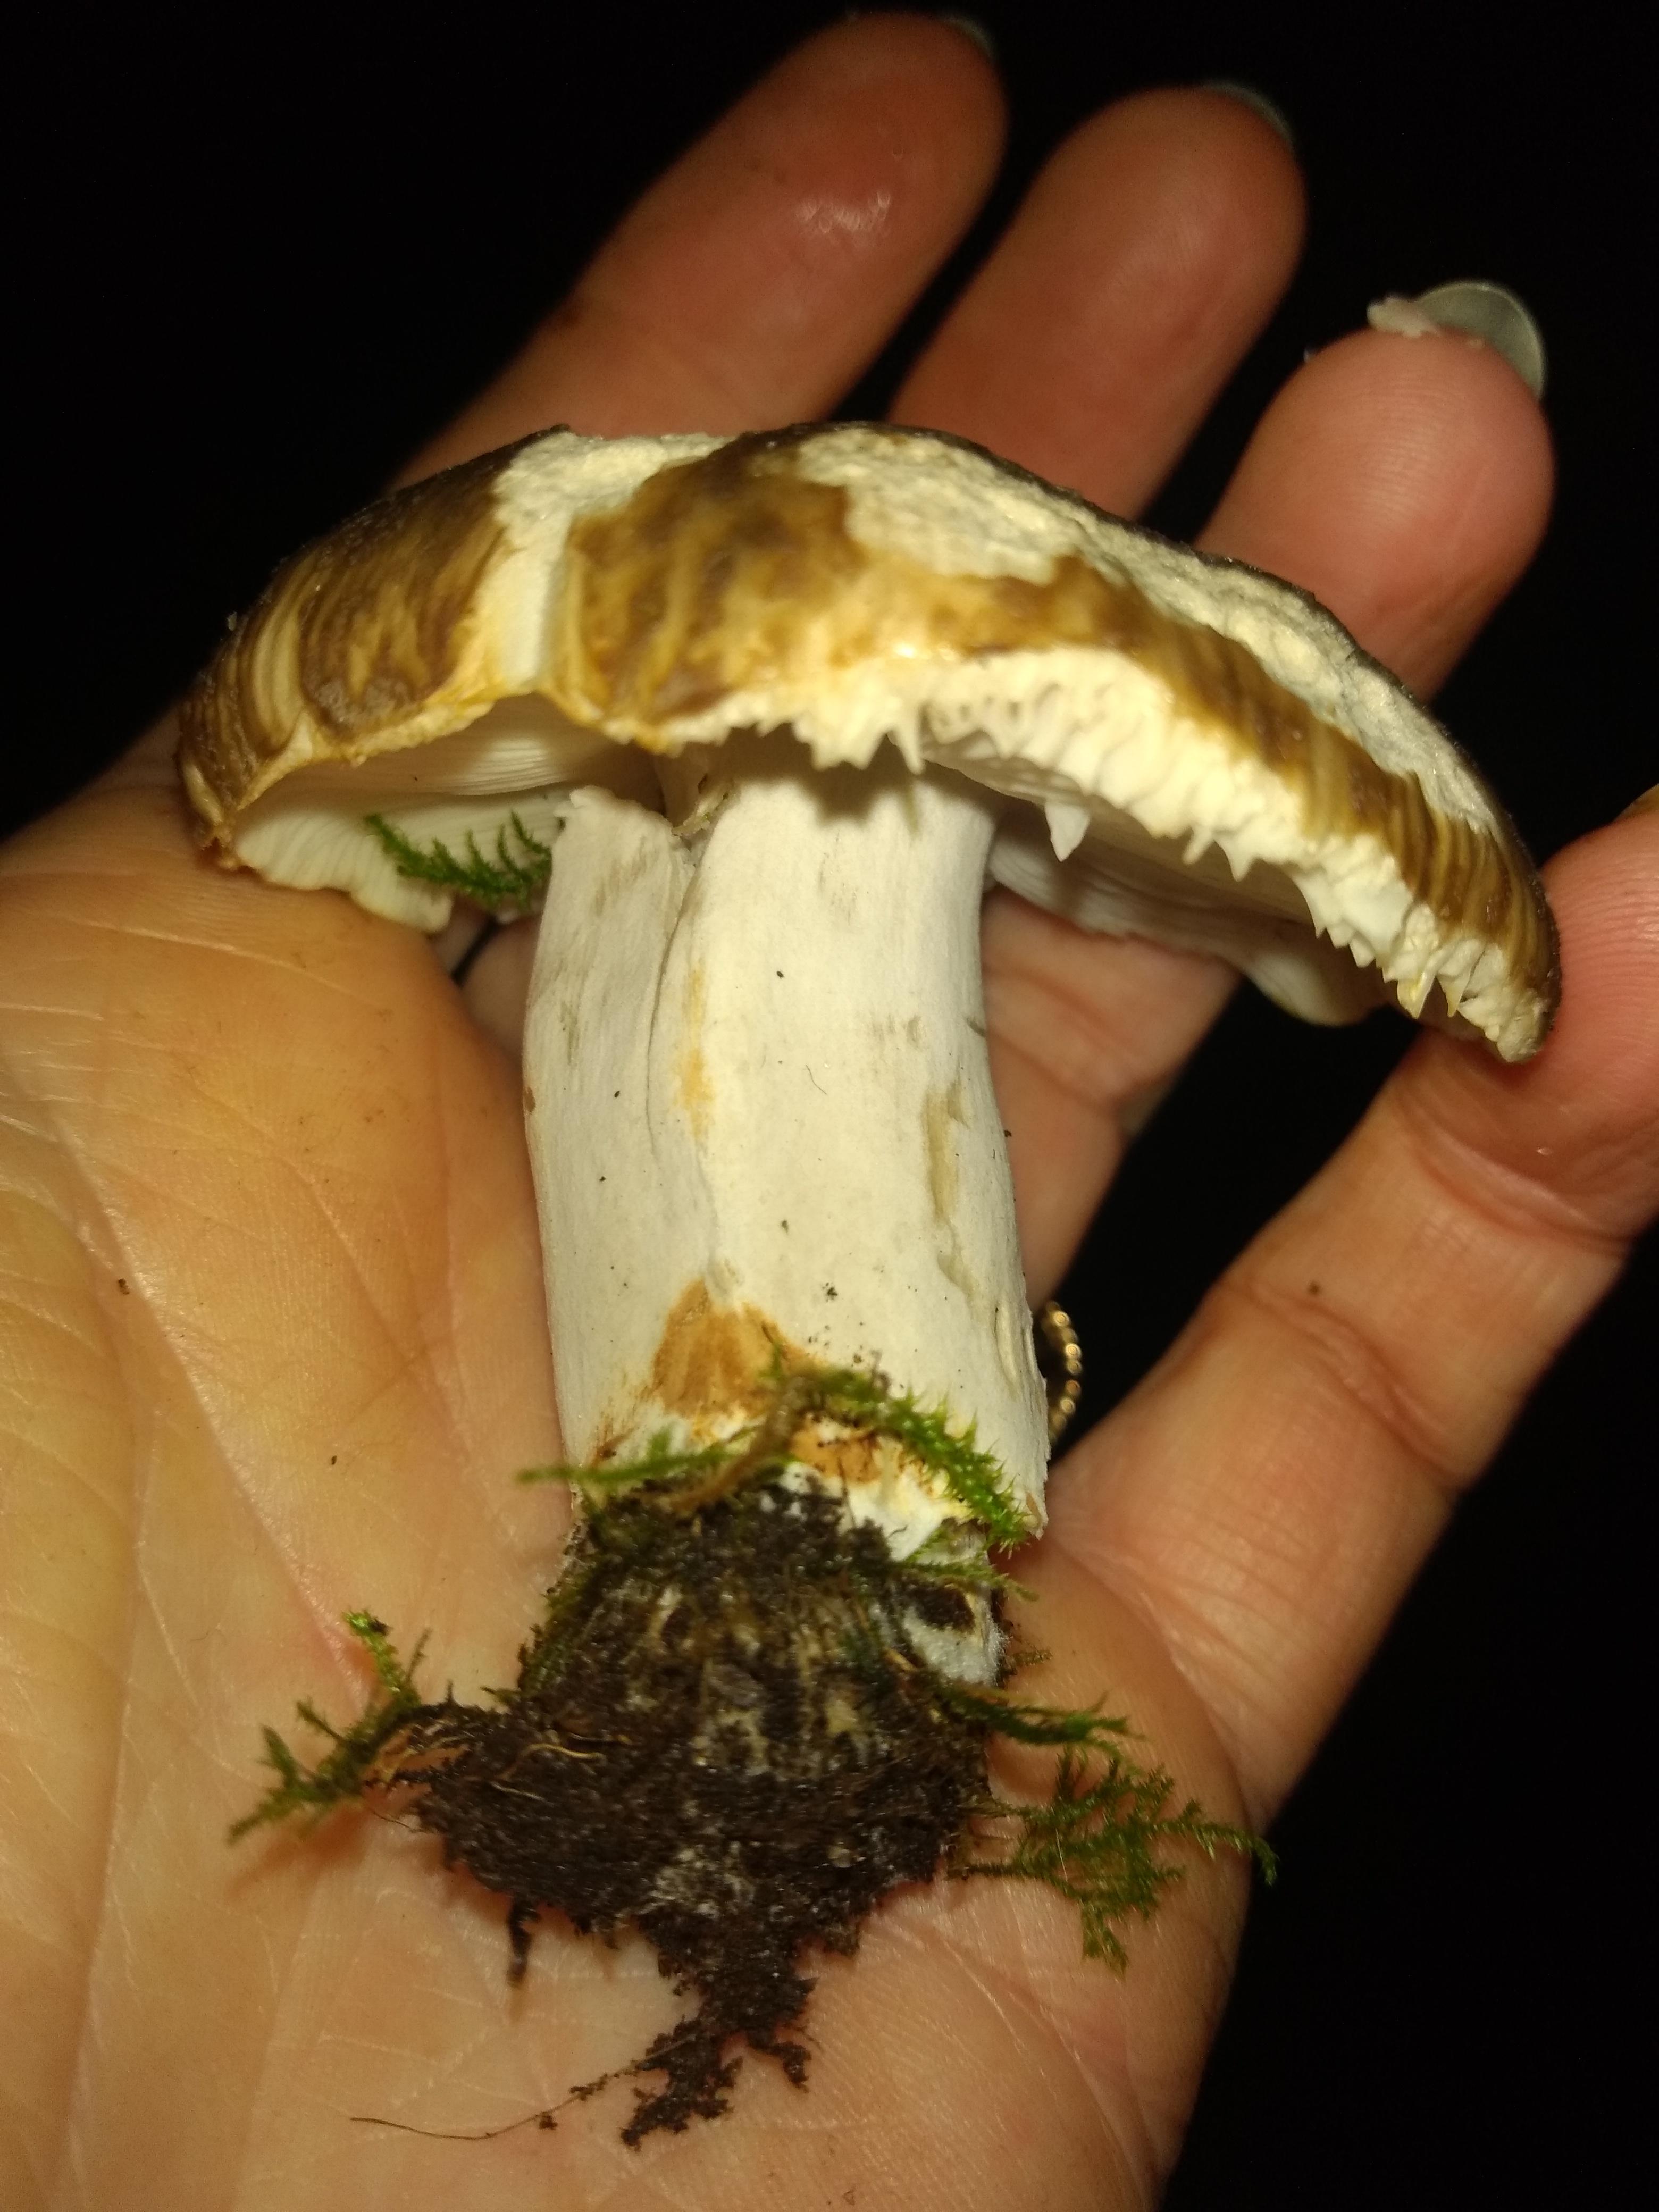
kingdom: Fungi
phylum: Basidiomycota
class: Agaricomycetes
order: Russulales
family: Russulaceae
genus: Russula
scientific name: Russula
